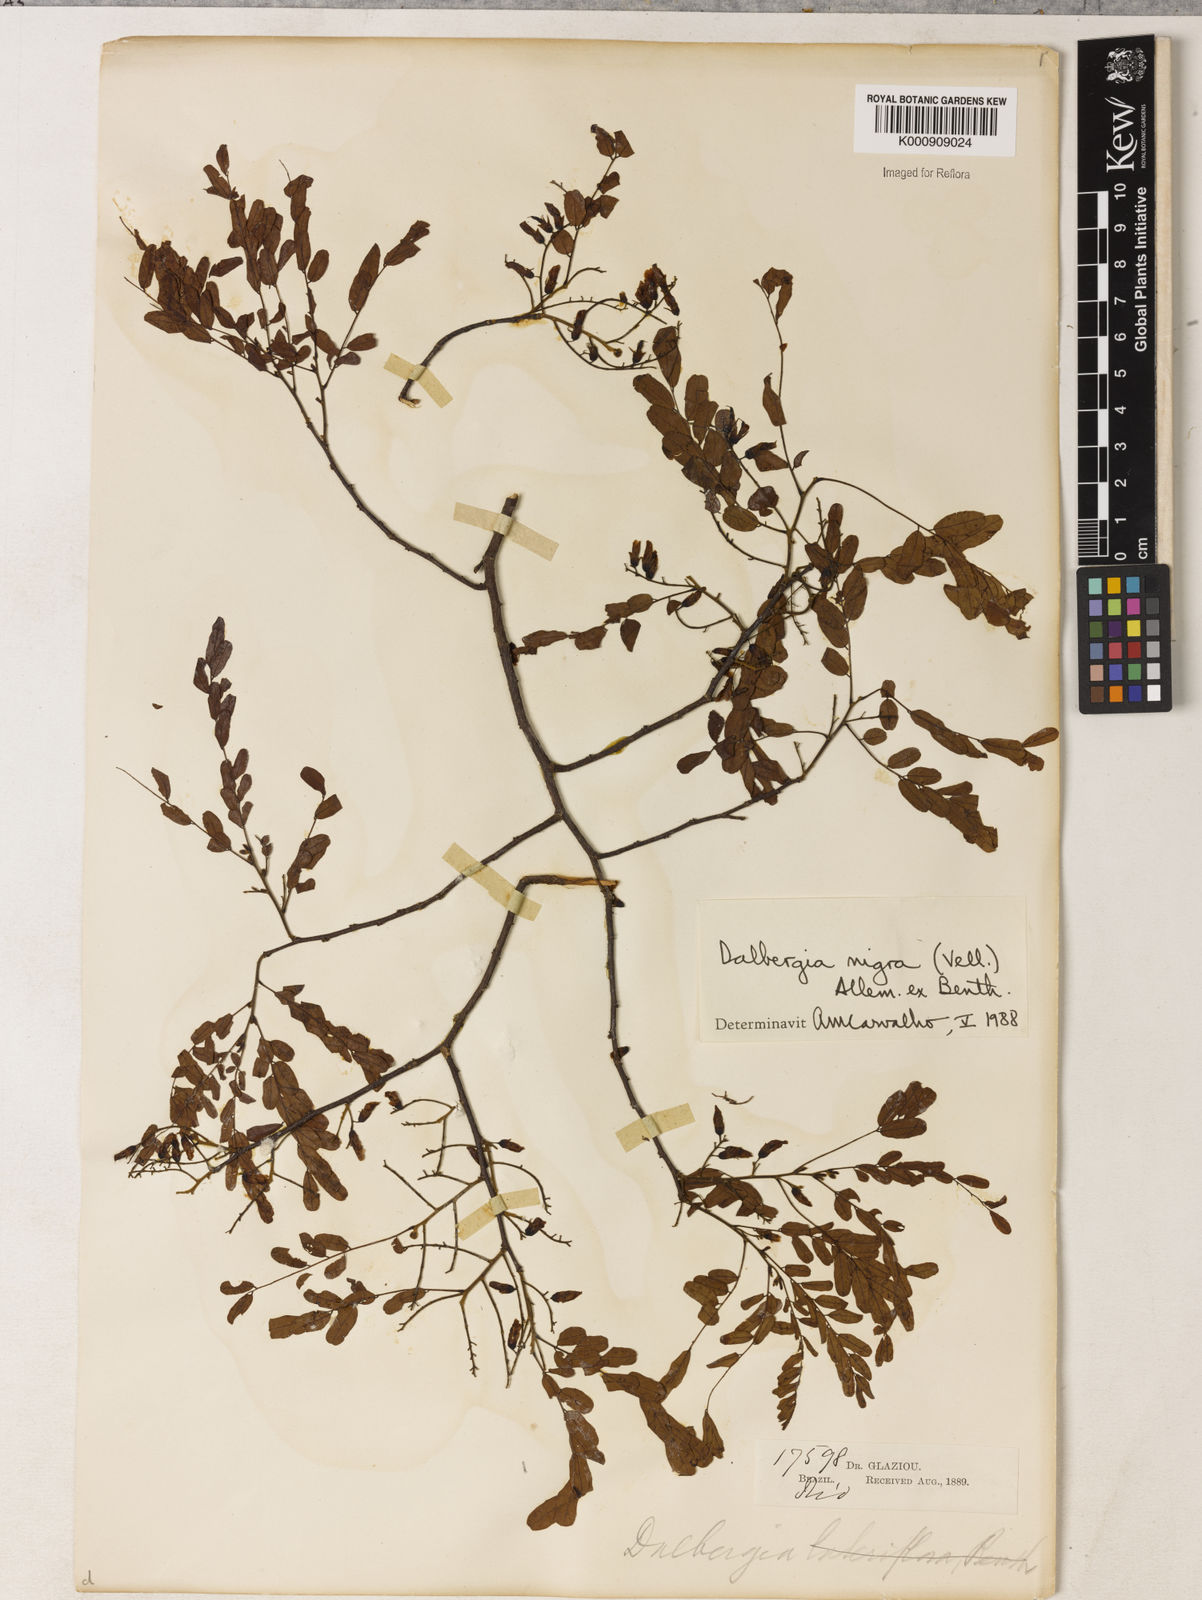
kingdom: Plantae
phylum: Tracheophyta
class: Magnoliopsida
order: Fabales
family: Fabaceae
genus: Dalbergia
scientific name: Dalbergia
